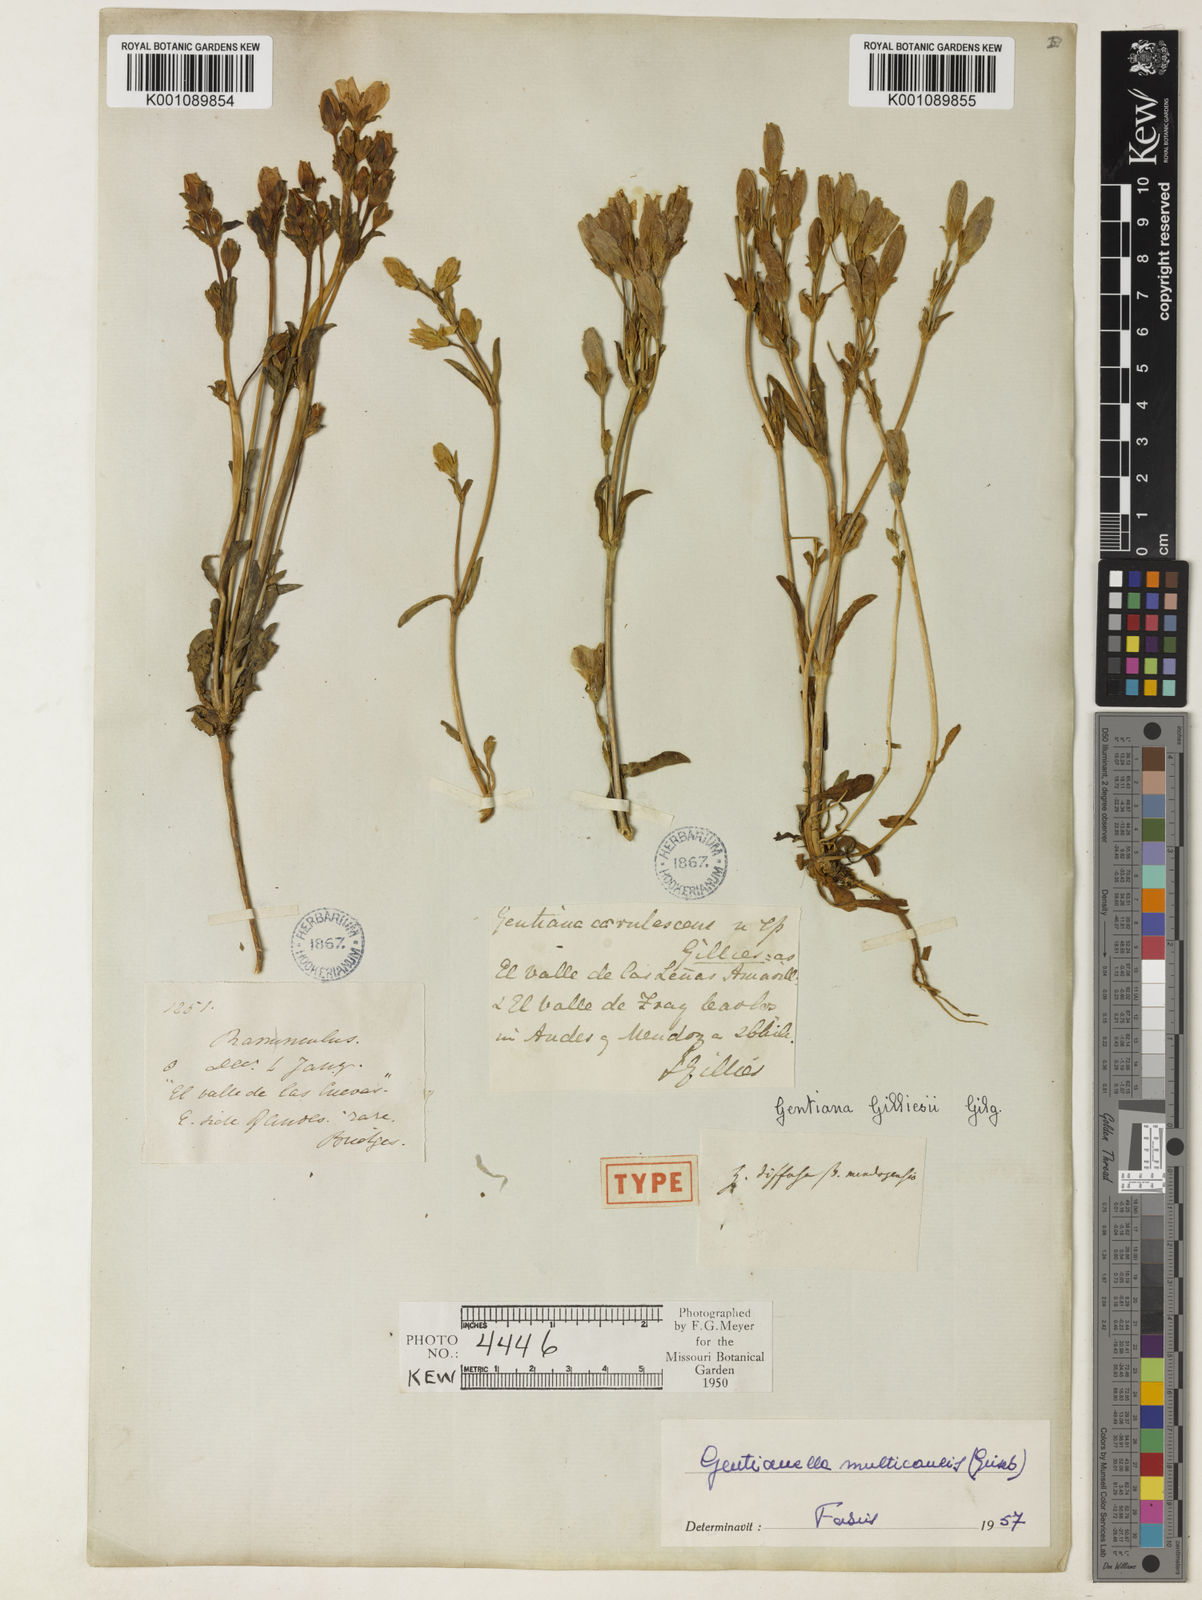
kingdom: Plantae
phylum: Tracheophyta
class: Magnoliopsida
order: Gentianales
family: Gentianaceae
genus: Gentianella
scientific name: Gentianella multicaulis
